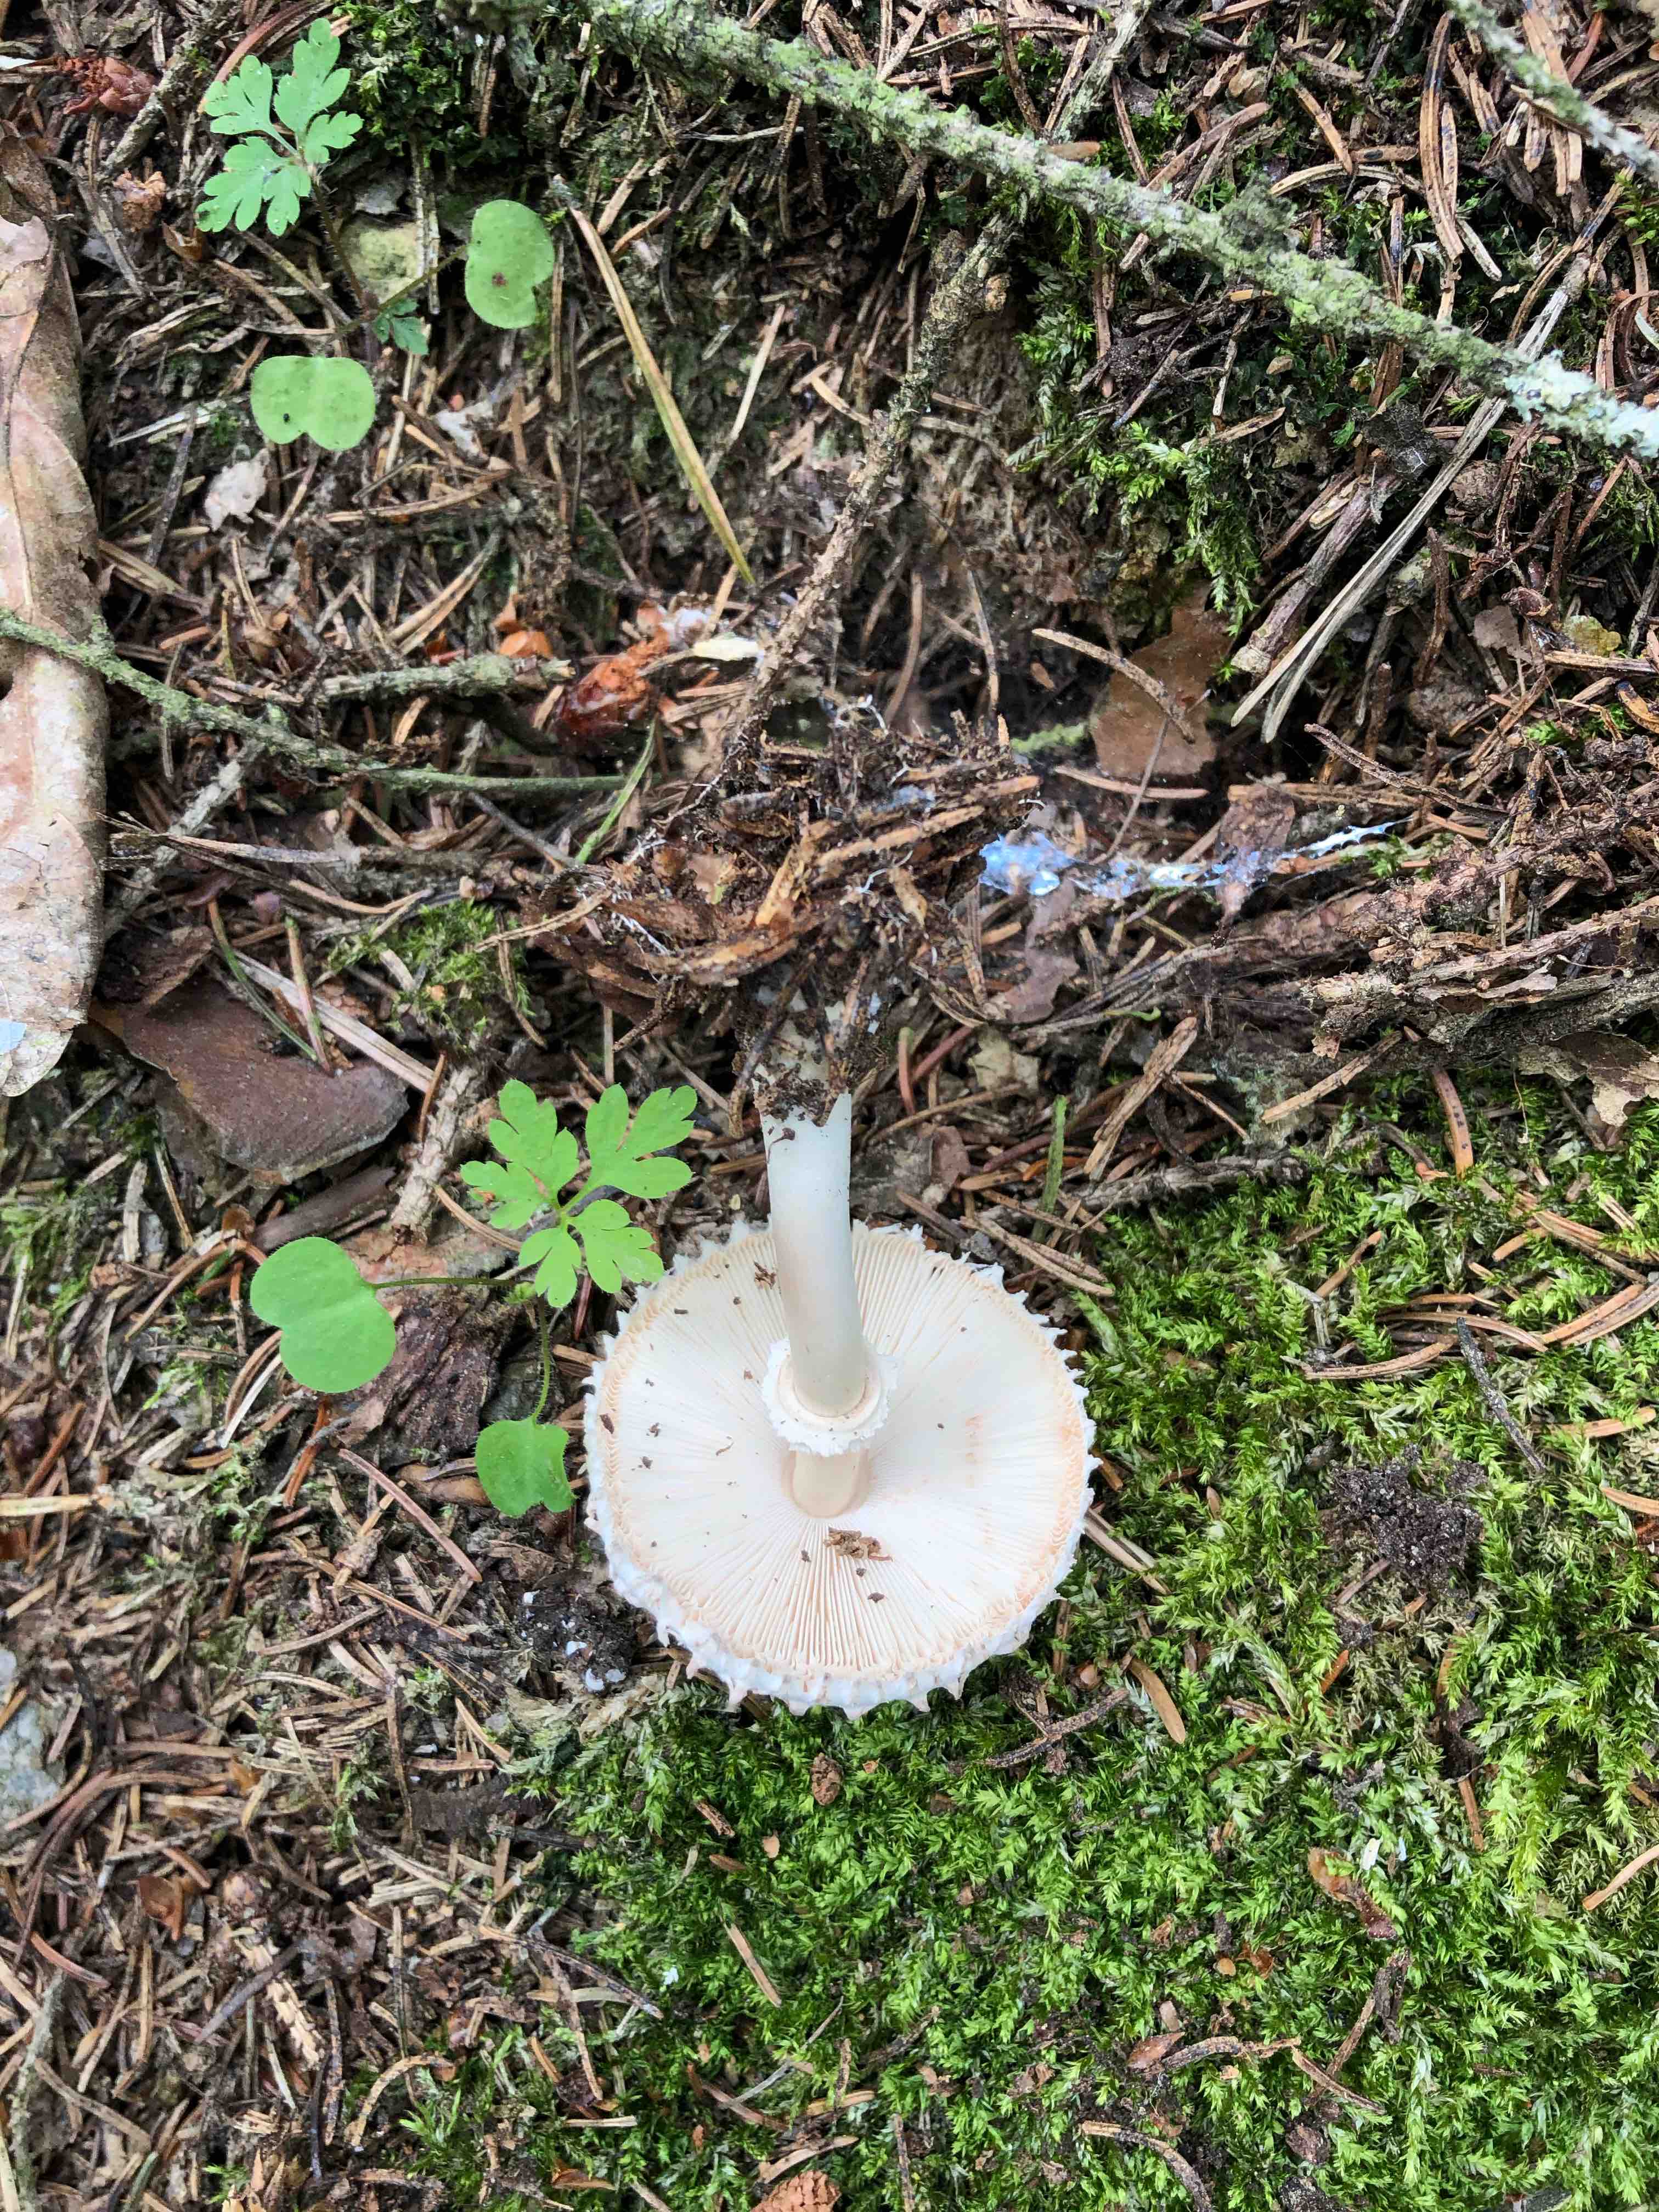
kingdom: Fungi
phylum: Basidiomycota
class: Agaricomycetes
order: Agaricales
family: Agaricaceae
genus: Leucoagaricus
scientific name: Leucoagaricus nympharum
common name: gran-silkehat
